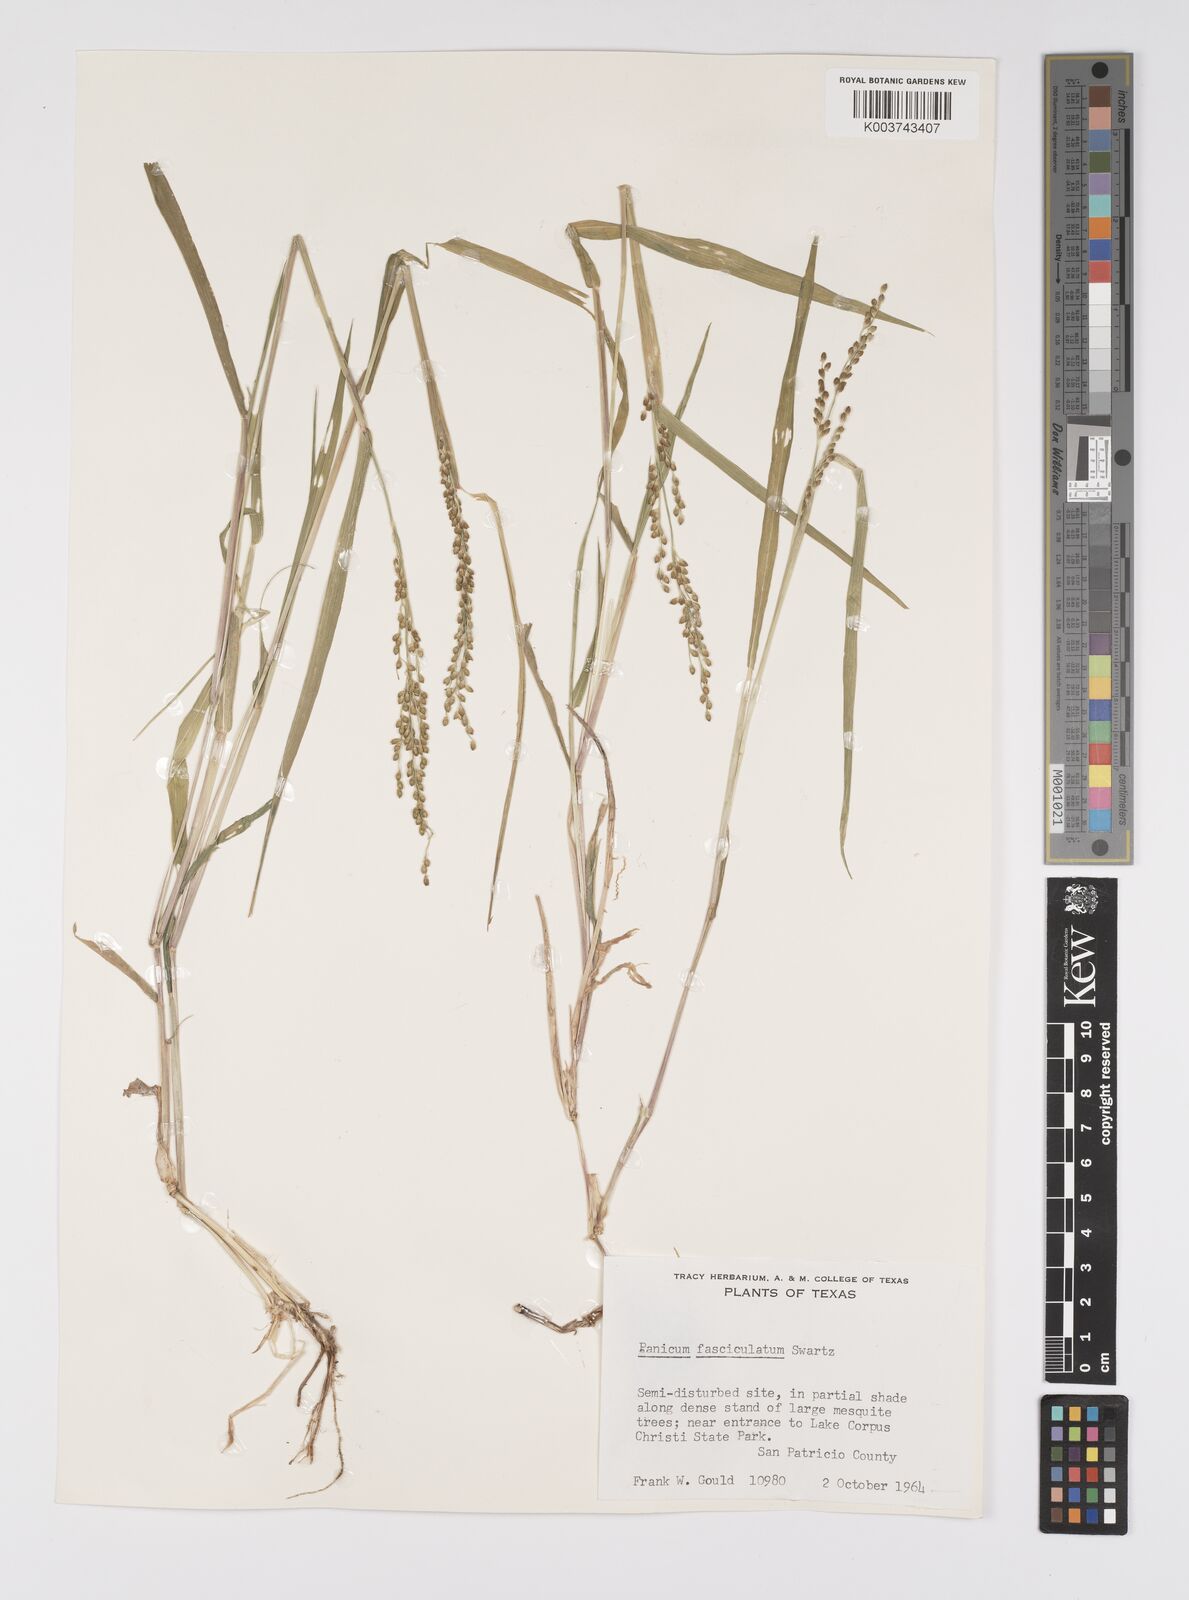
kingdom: Plantae
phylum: Tracheophyta
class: Liliopsida
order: Poales
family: Poaceae
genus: Urochloa
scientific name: Urochloa fusca
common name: Browntop signal grass
